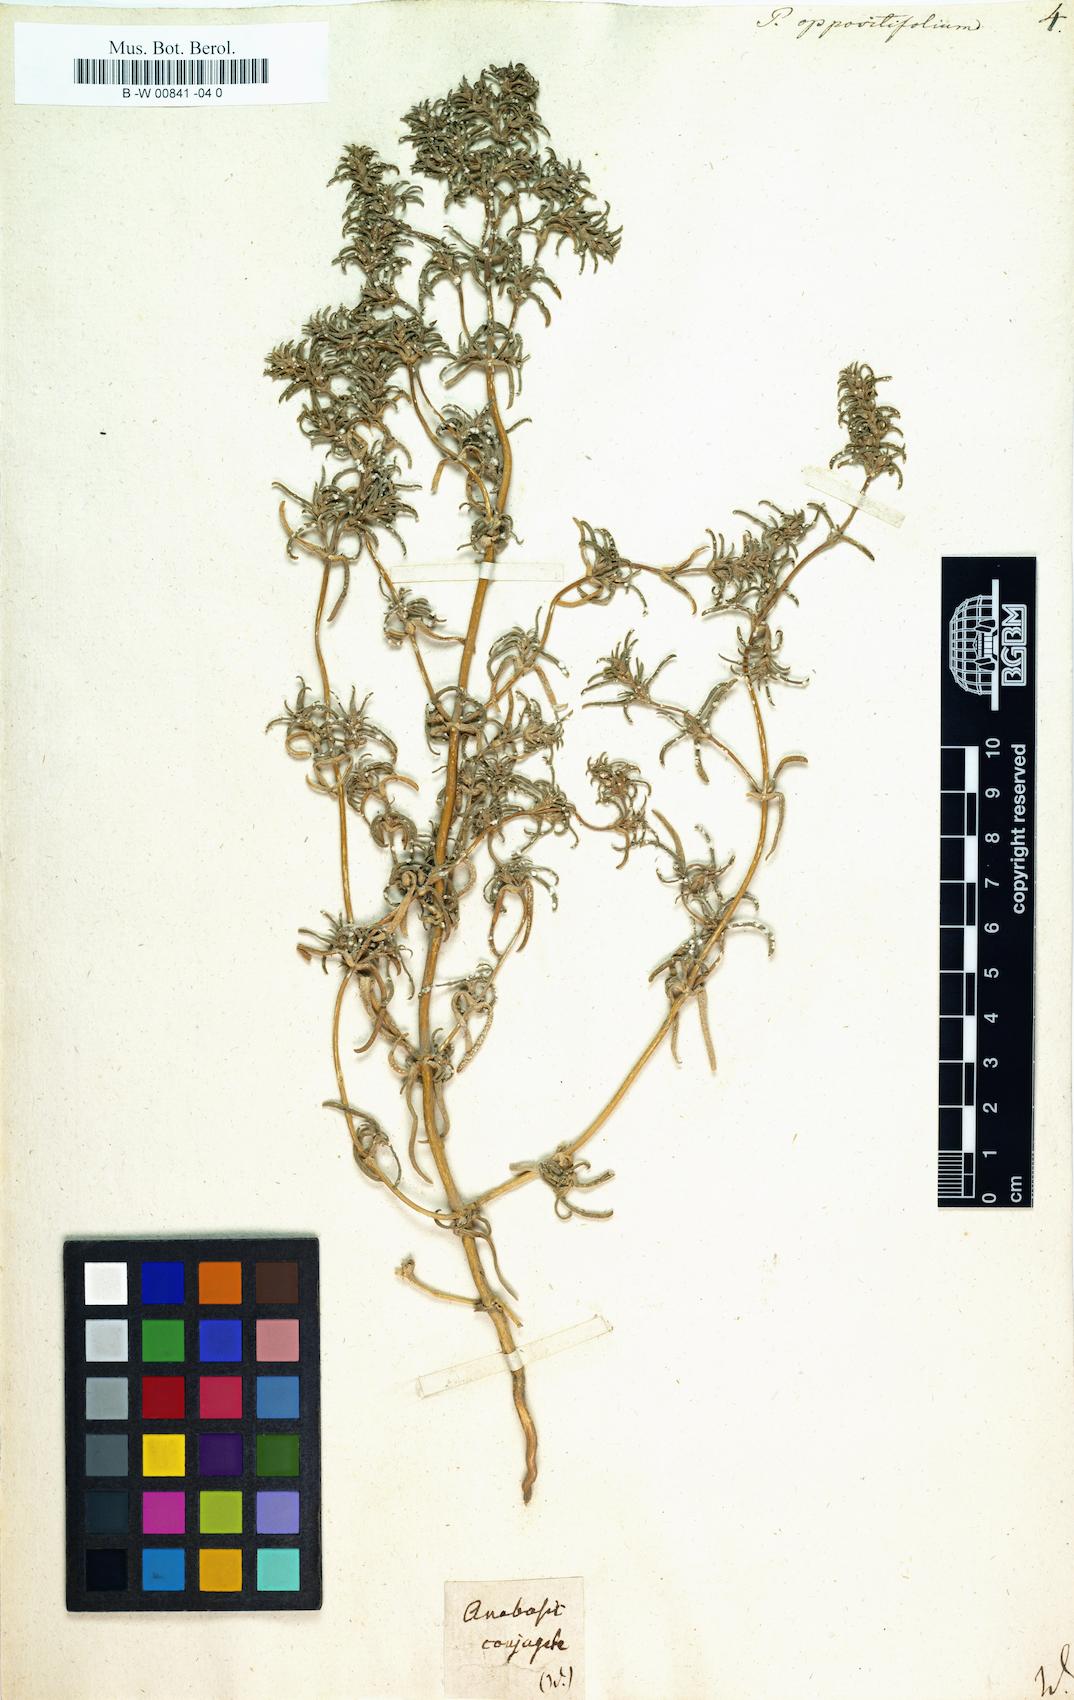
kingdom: Plantae
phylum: Tracheophyta
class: Magnoliopsida
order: Caryophyllales
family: Amaranthaceae
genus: Petrosimonia
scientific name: Petrosimonia oppositifolia
